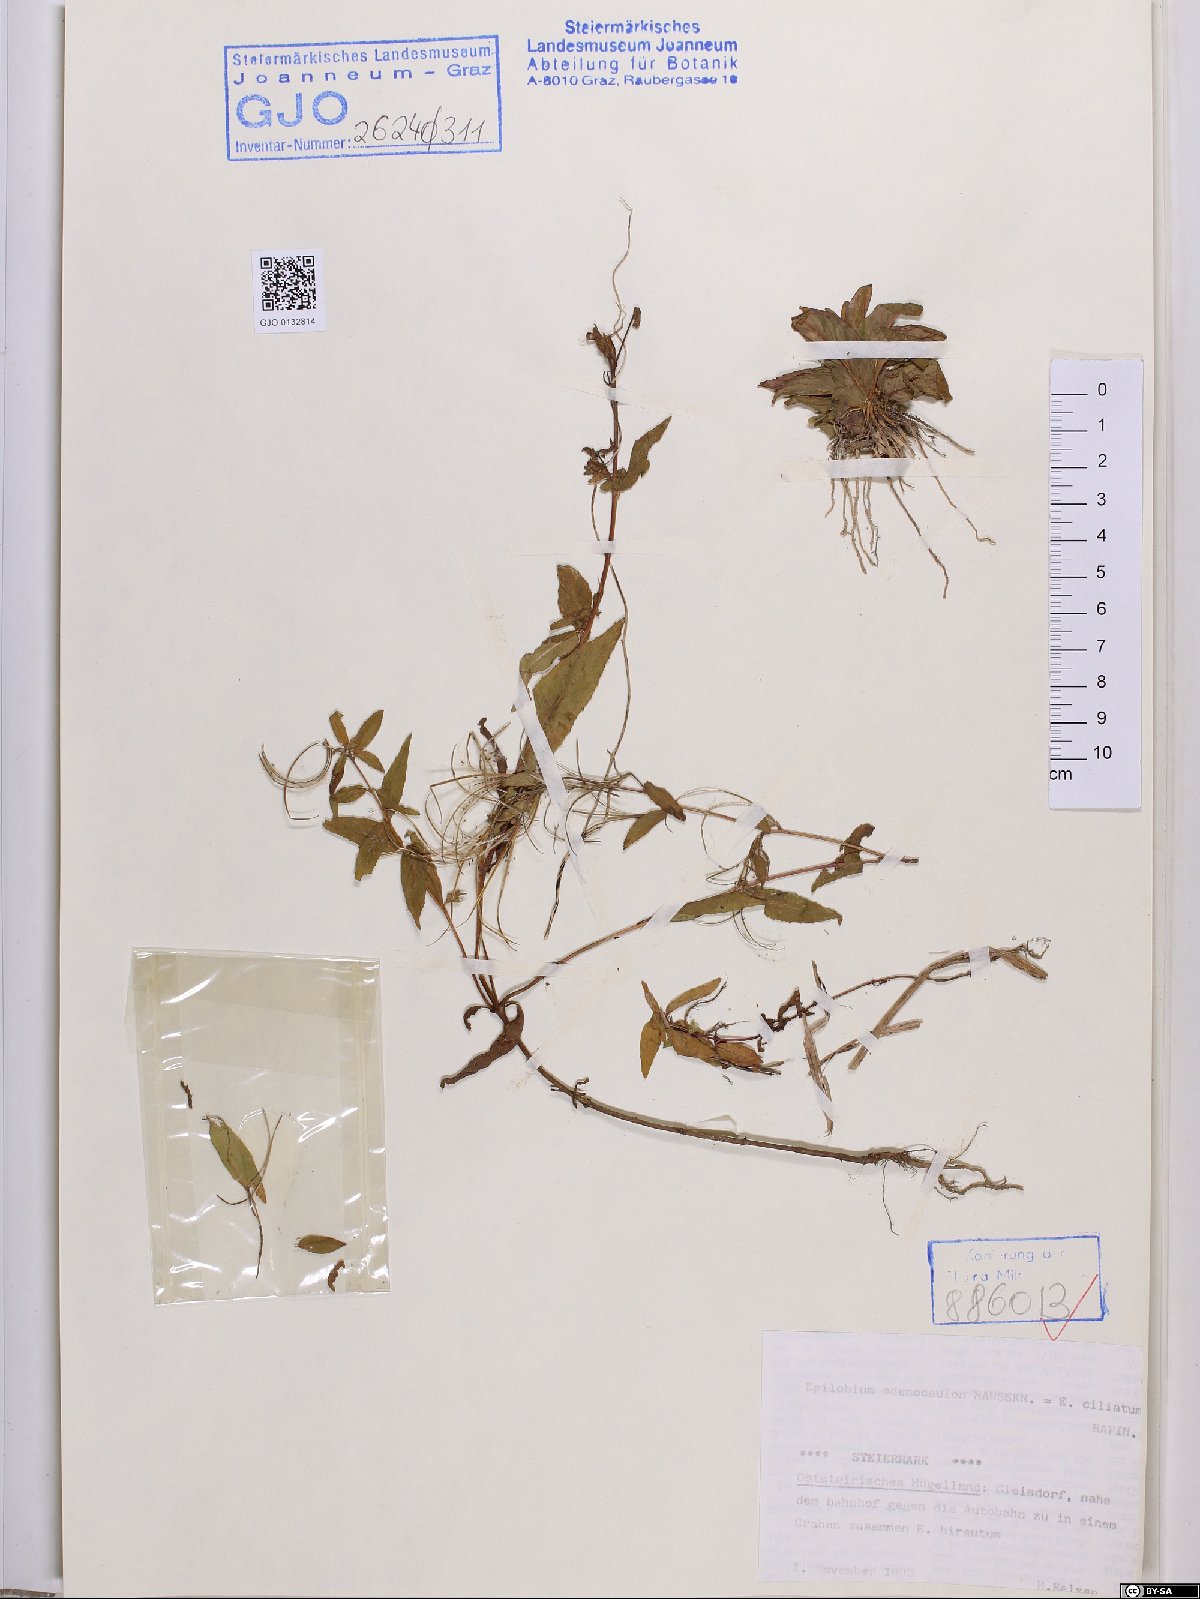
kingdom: Plantae
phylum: Tracheophyta
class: Magnoliopsida
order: Myrtales
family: Onagraceae
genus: Epilobium
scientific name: Epilobium ciliatum
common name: American willowherb
